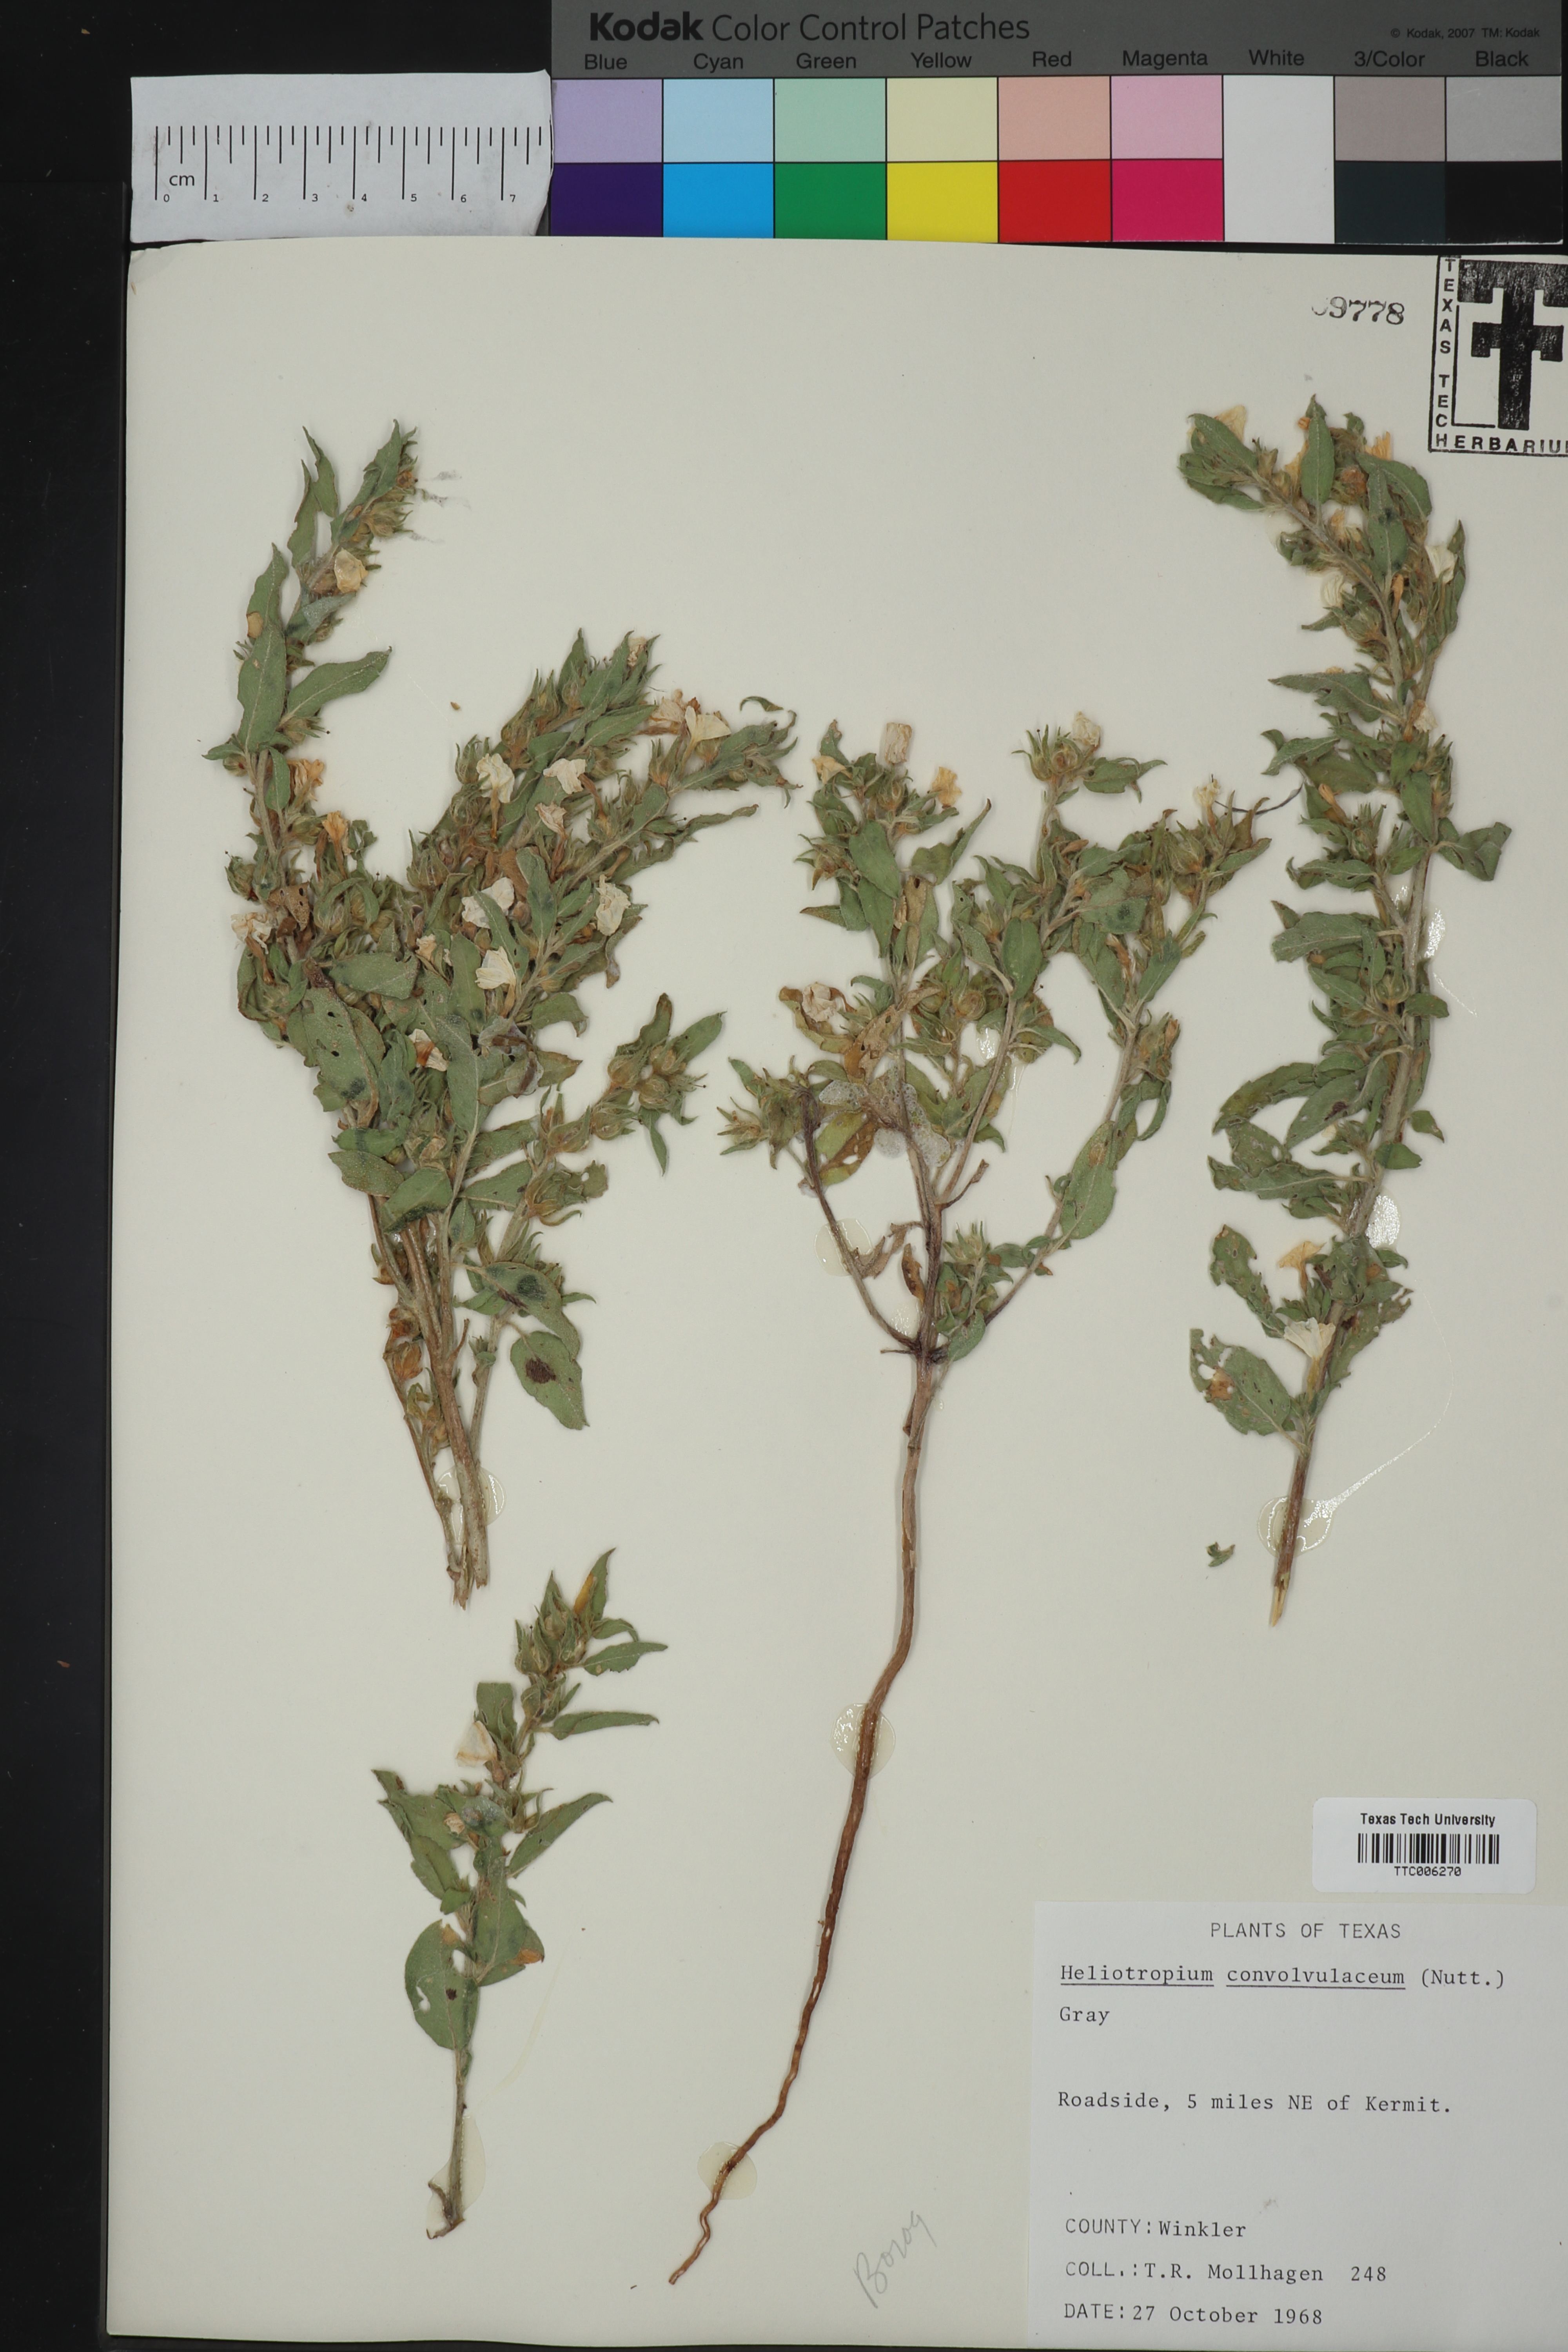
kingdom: Plantae
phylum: Tracheophyta
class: Magnoliopsida
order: Boraginales
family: Heliotropiaceae
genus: Euploca
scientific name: Euploca convolvulacea
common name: Bindweed heliotrope
